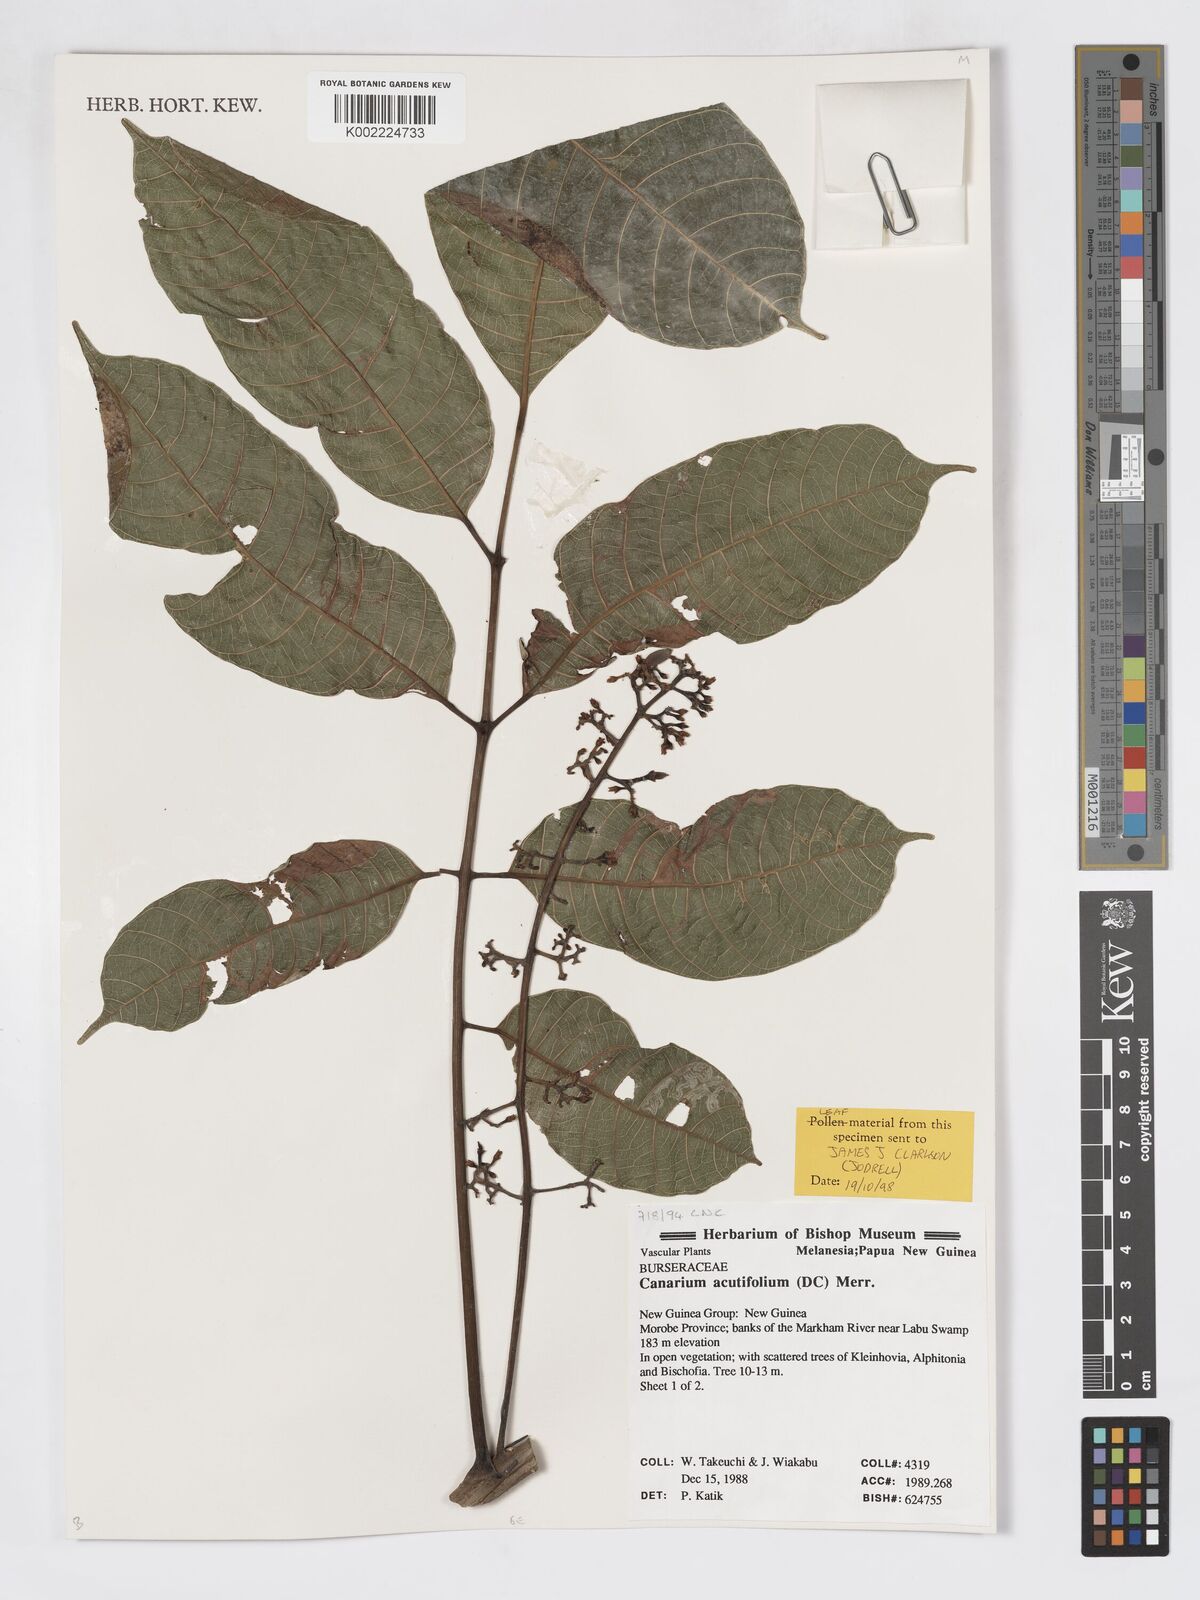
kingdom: Plantae
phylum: Tracheophyta
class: Magnoliopsida
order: Sapindales
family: Burseraceae
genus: Canarium
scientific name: Canarium acutifolium
